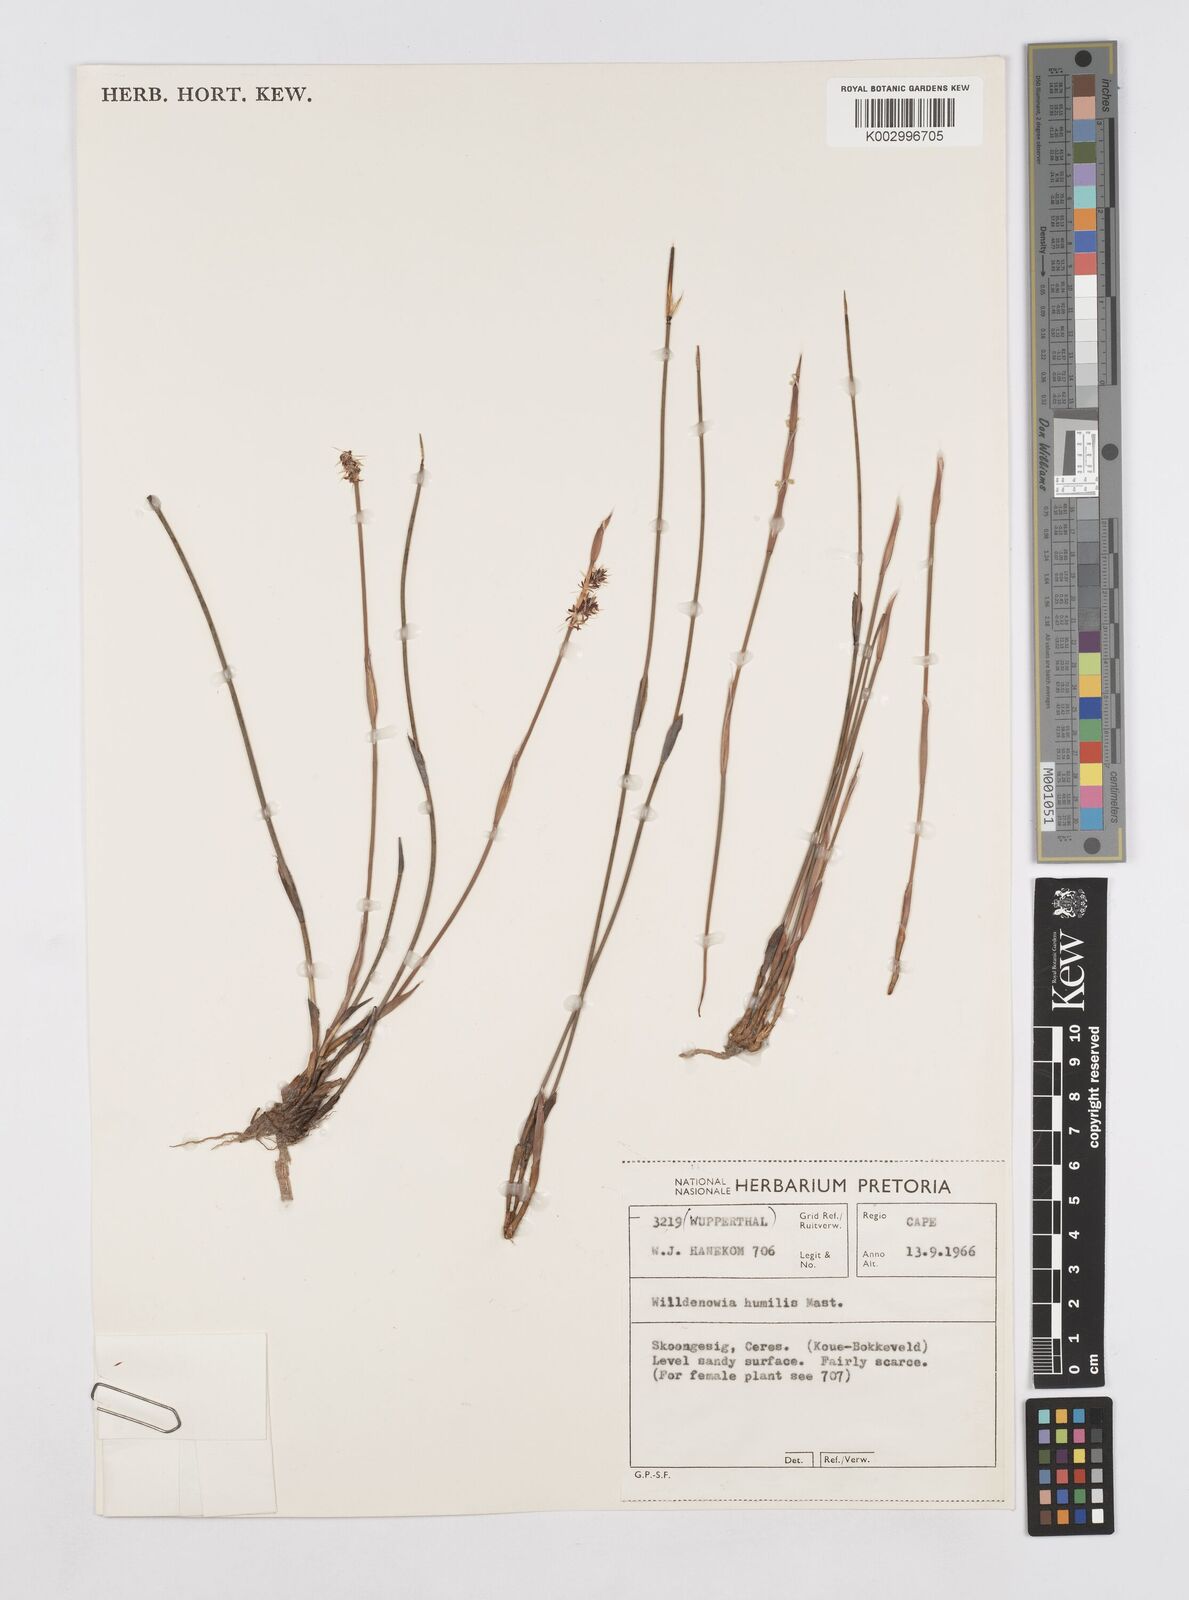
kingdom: Plantae
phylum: Tracheophyta
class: Liliopsida
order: Poales
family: Restionaceae
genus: Willdenowia
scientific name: Willdenowia humilis
